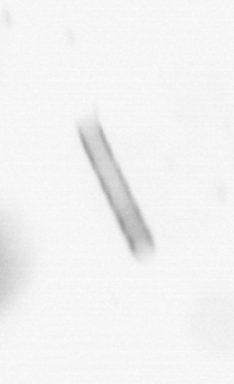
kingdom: Chromista
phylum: Ochrophyta
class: Bacillariophyceae
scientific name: Bacillariophyceae
